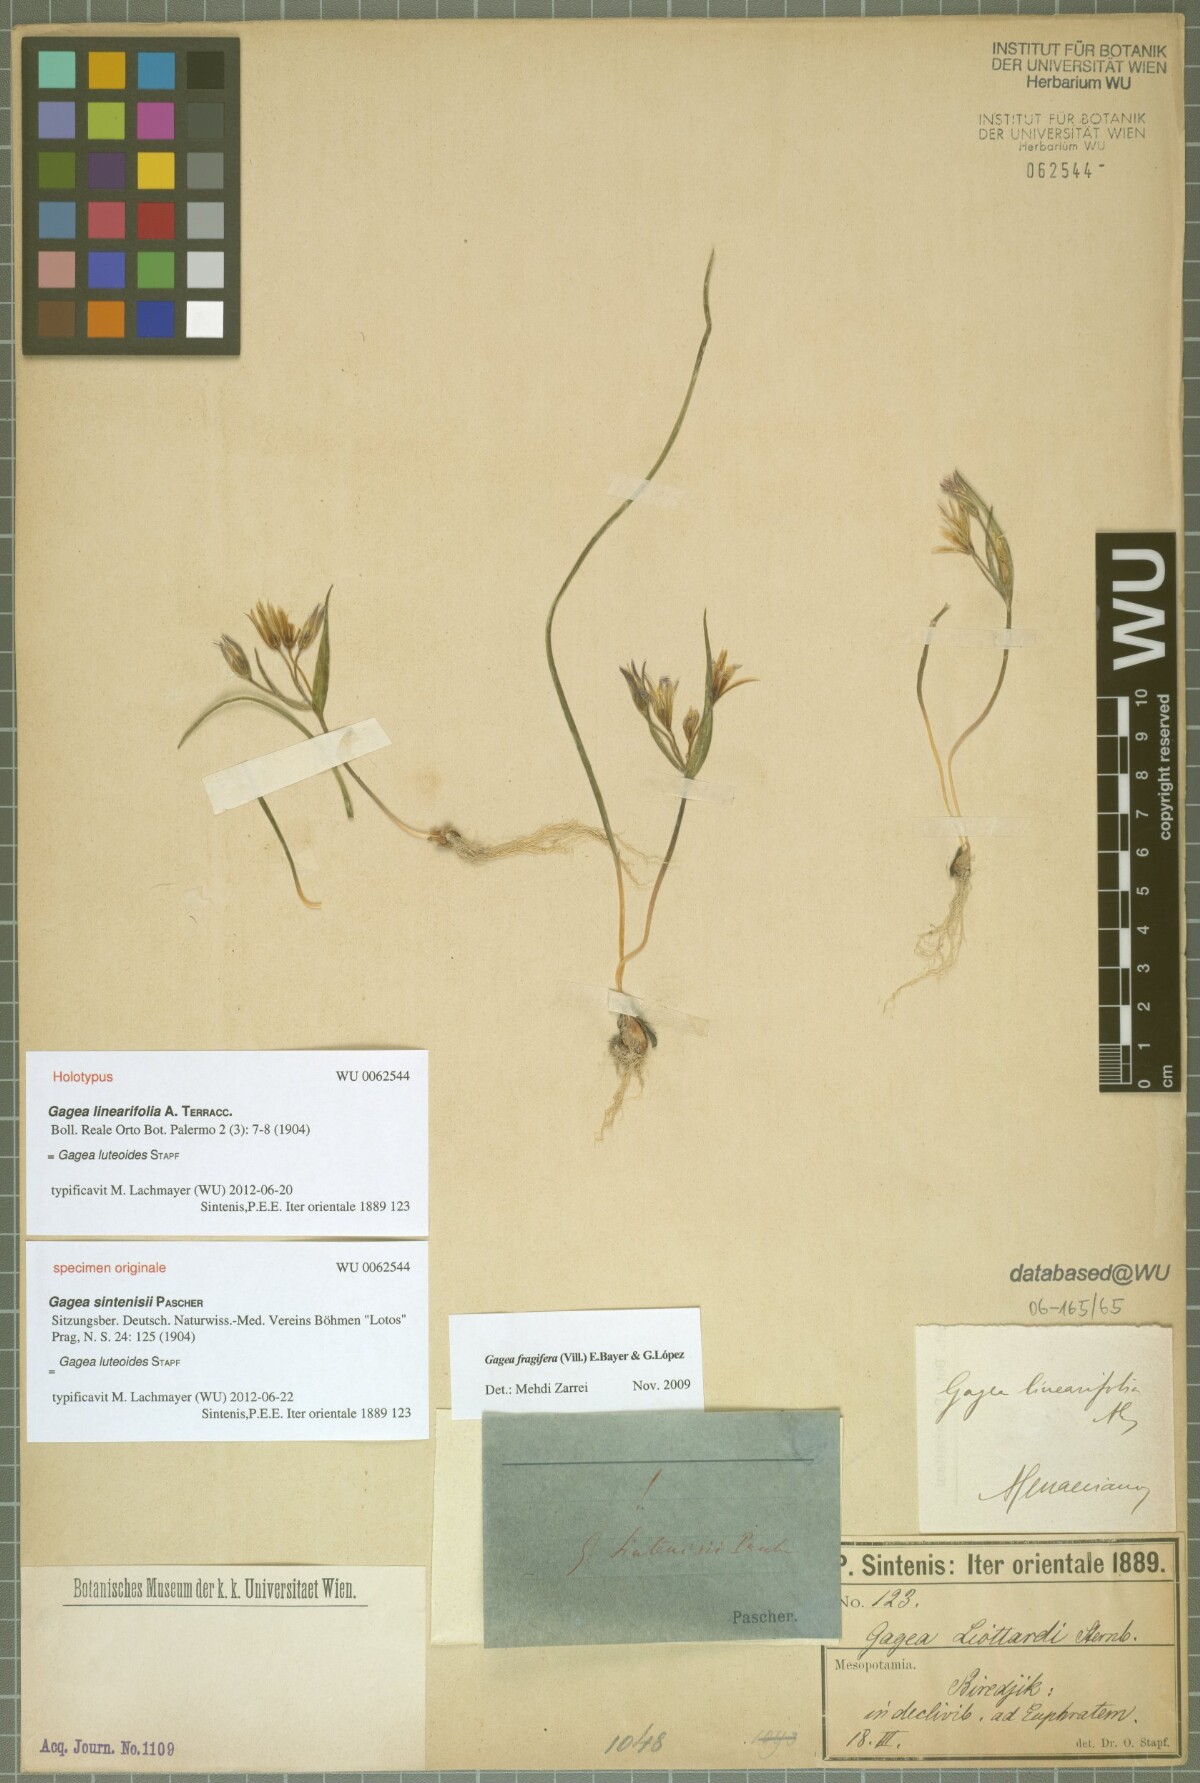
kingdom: Plantae
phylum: Tracheophyta
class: Liliopsida
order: Liliales
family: Liliaceae
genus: Gagea
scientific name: Gagea luteoides
